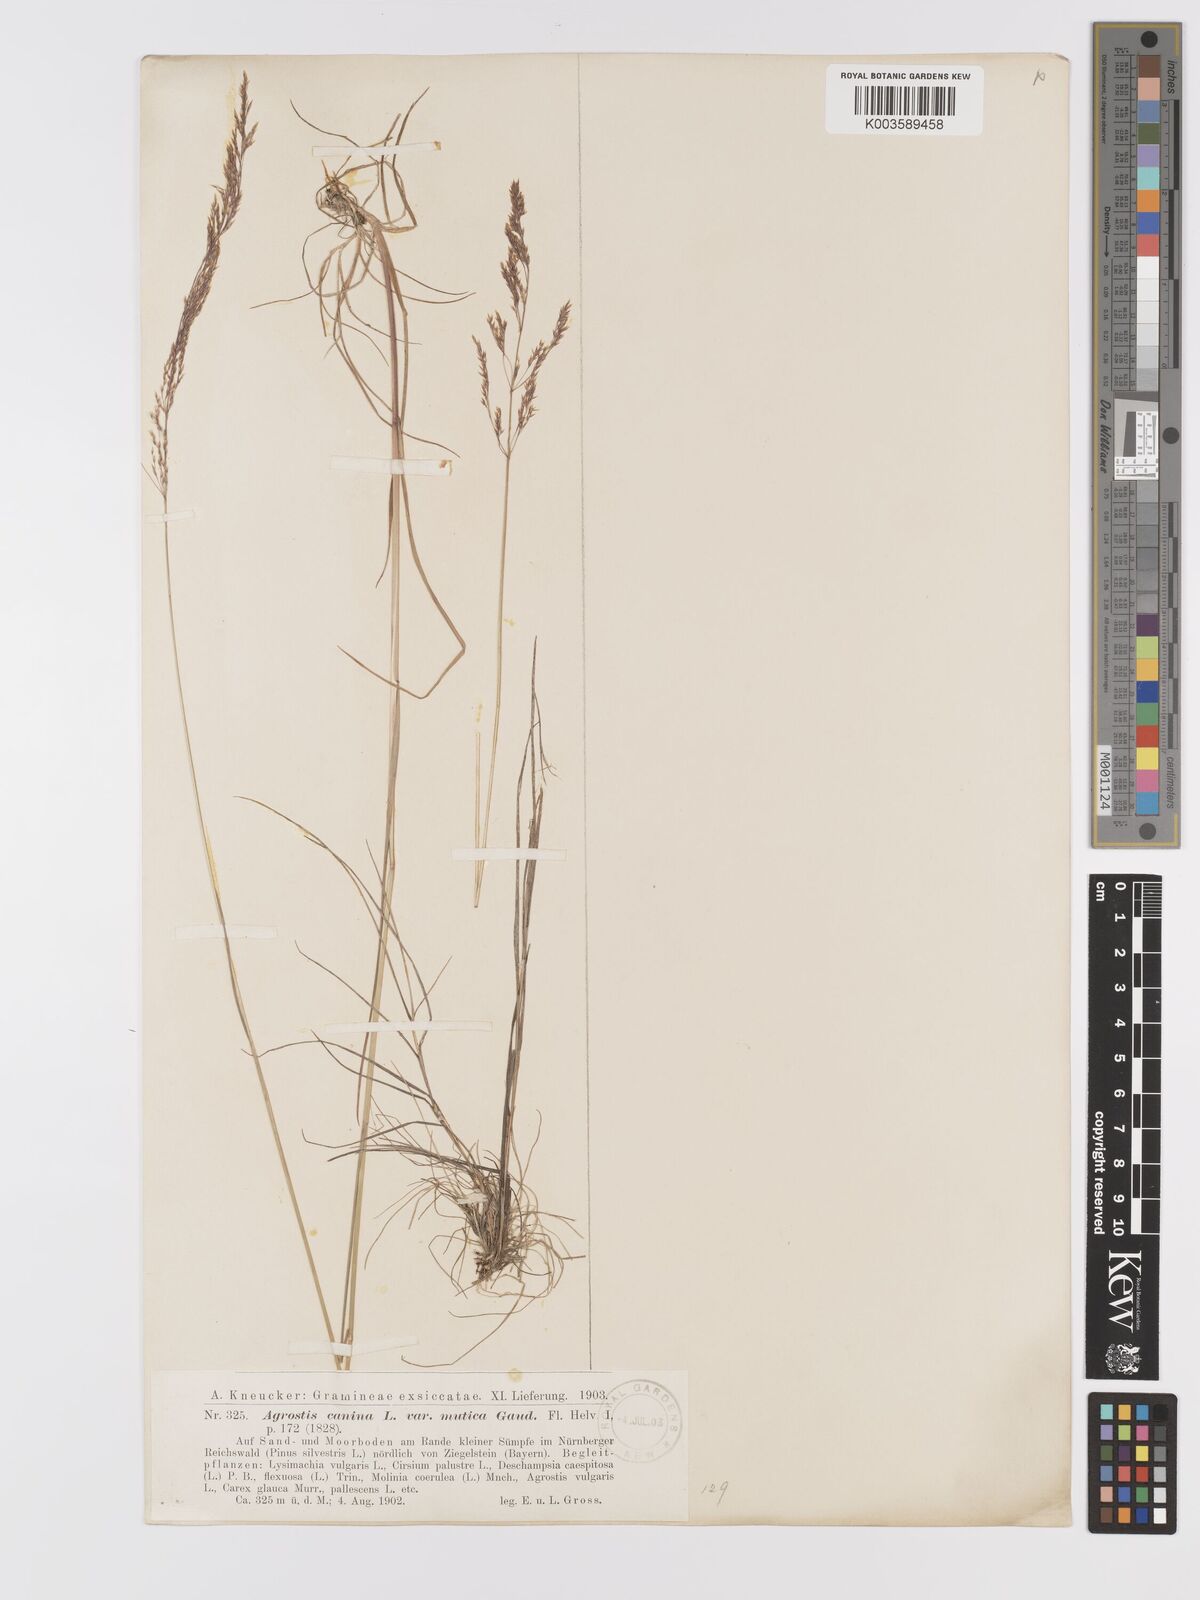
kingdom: Plantae
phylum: Tracheophyta
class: Liliopsida
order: Poales
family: Poaceae
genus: Agrostis
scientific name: Agrostis canina
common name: Velvet bent
